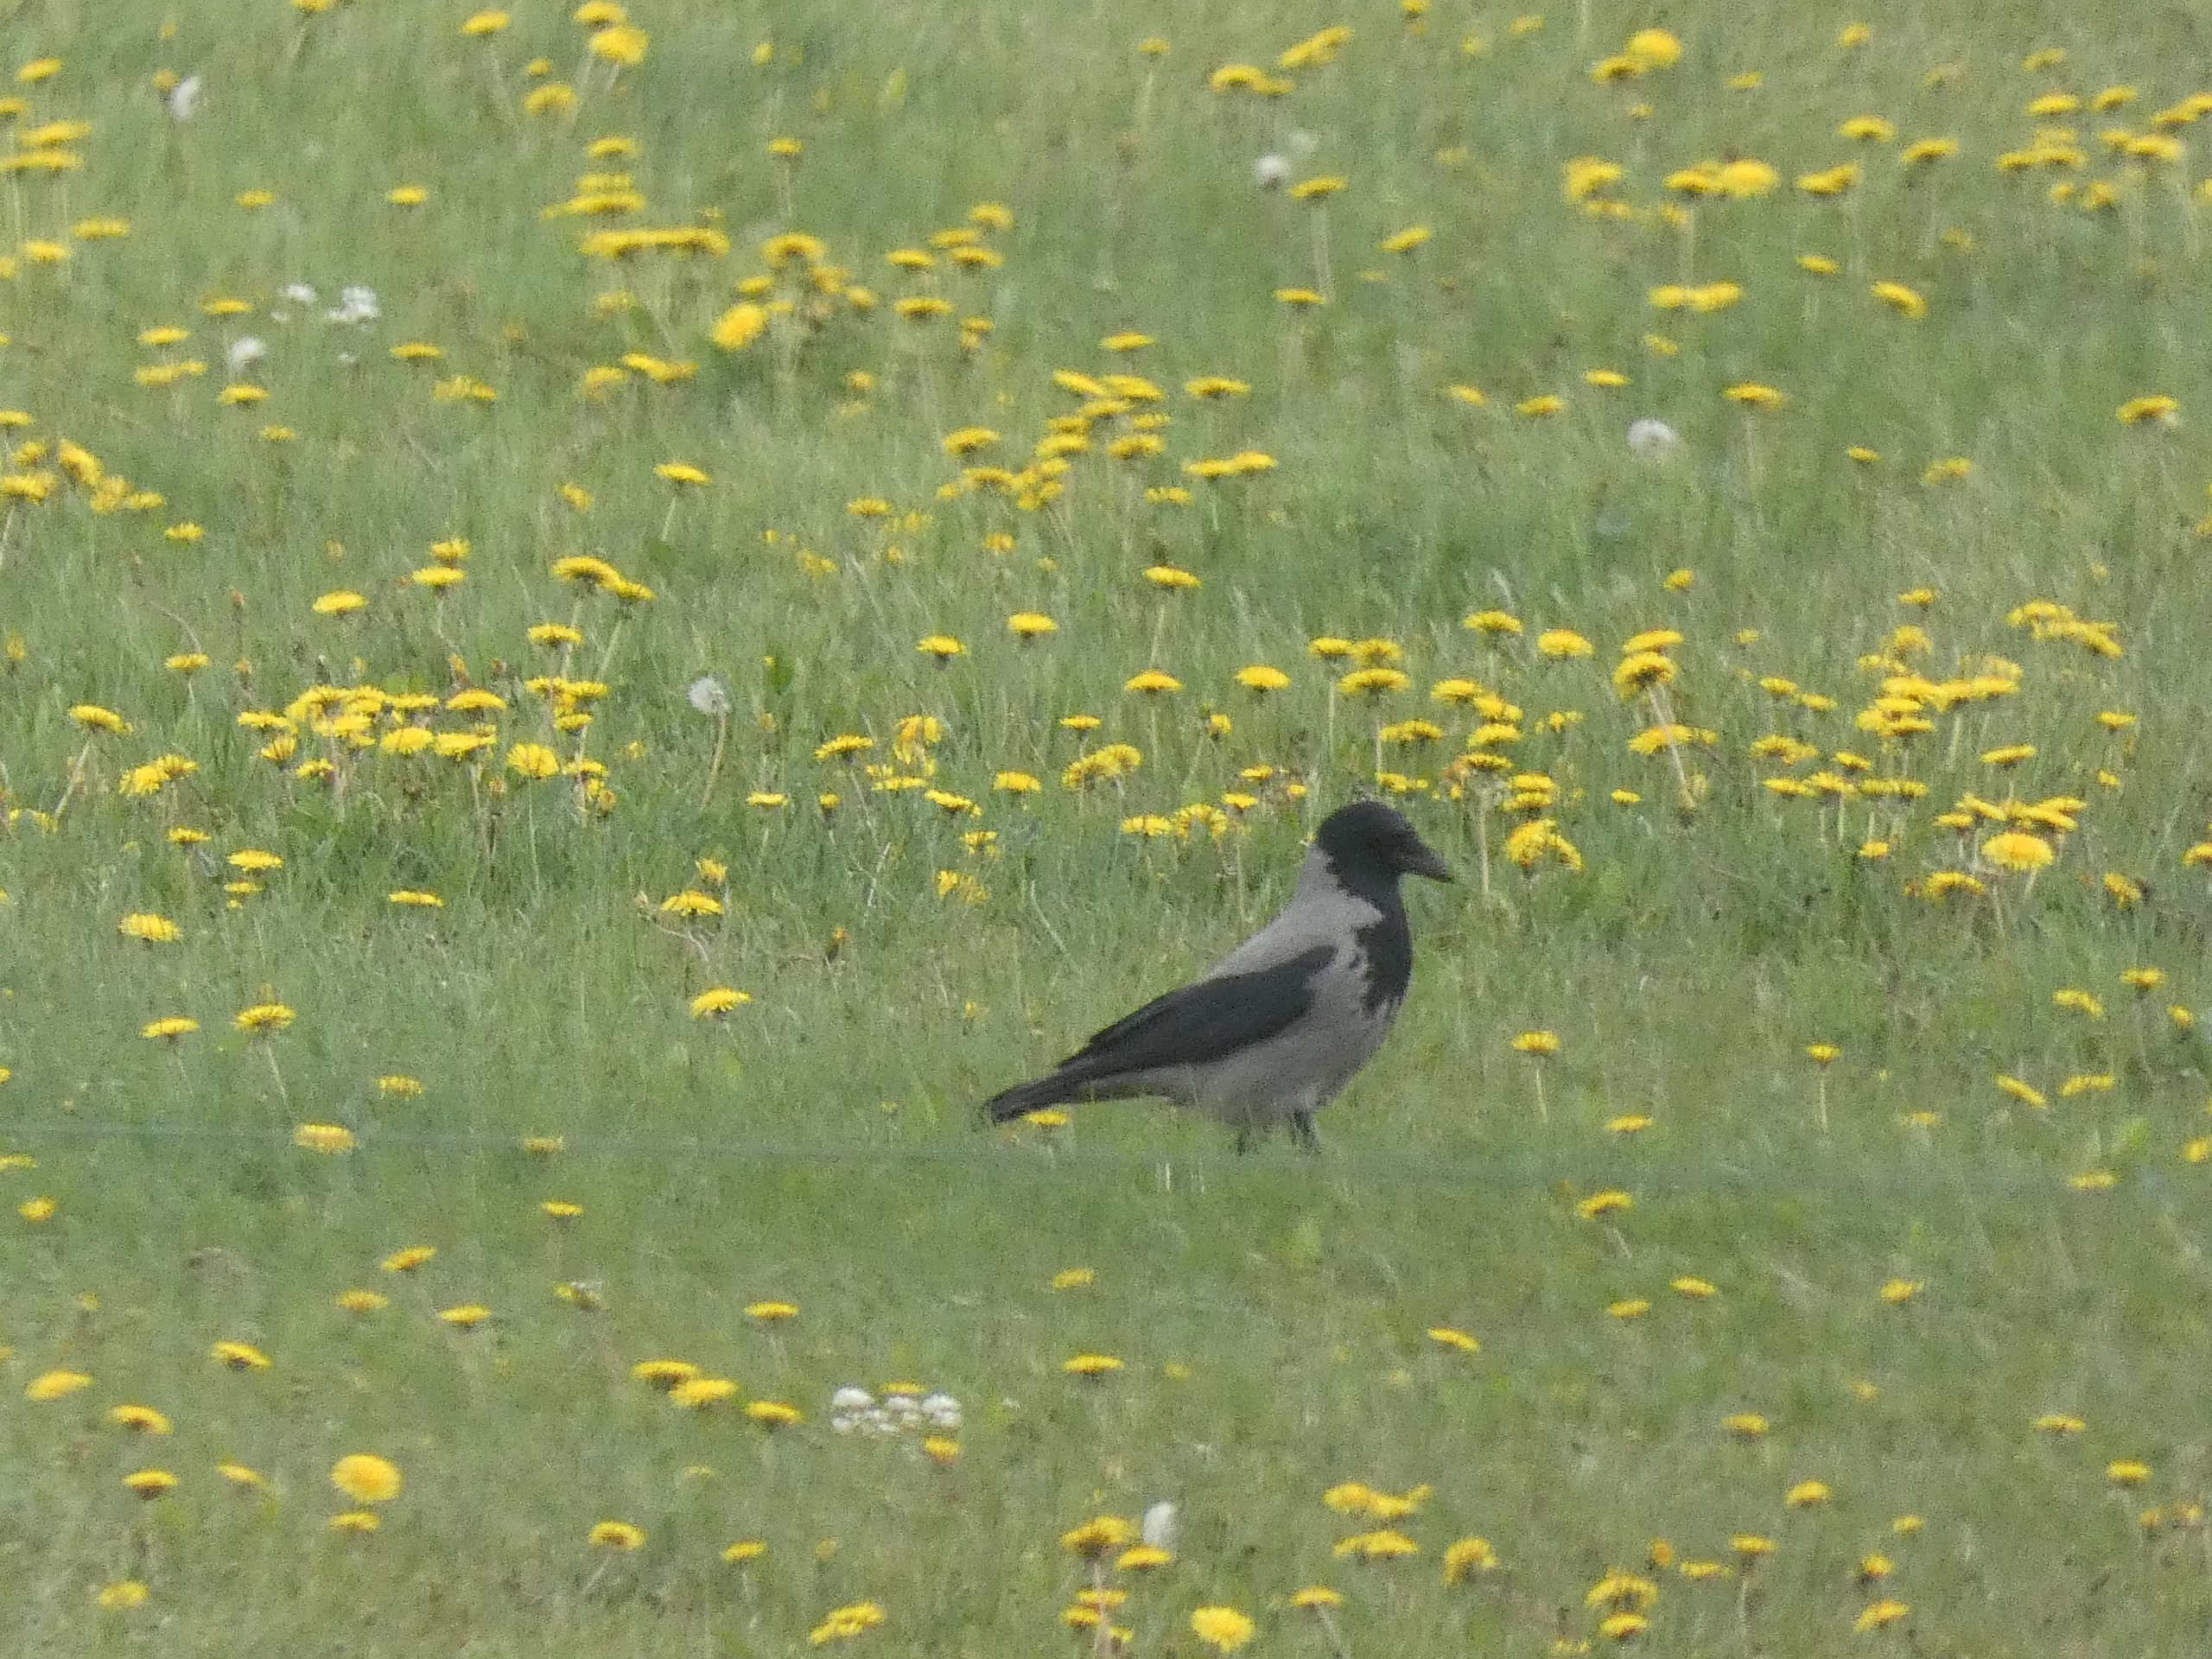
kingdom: Animalia
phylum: Chordata
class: Aves
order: Passeriformes
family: Corvidae
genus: Corvus
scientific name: Corvus cornix
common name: Gråkrage
